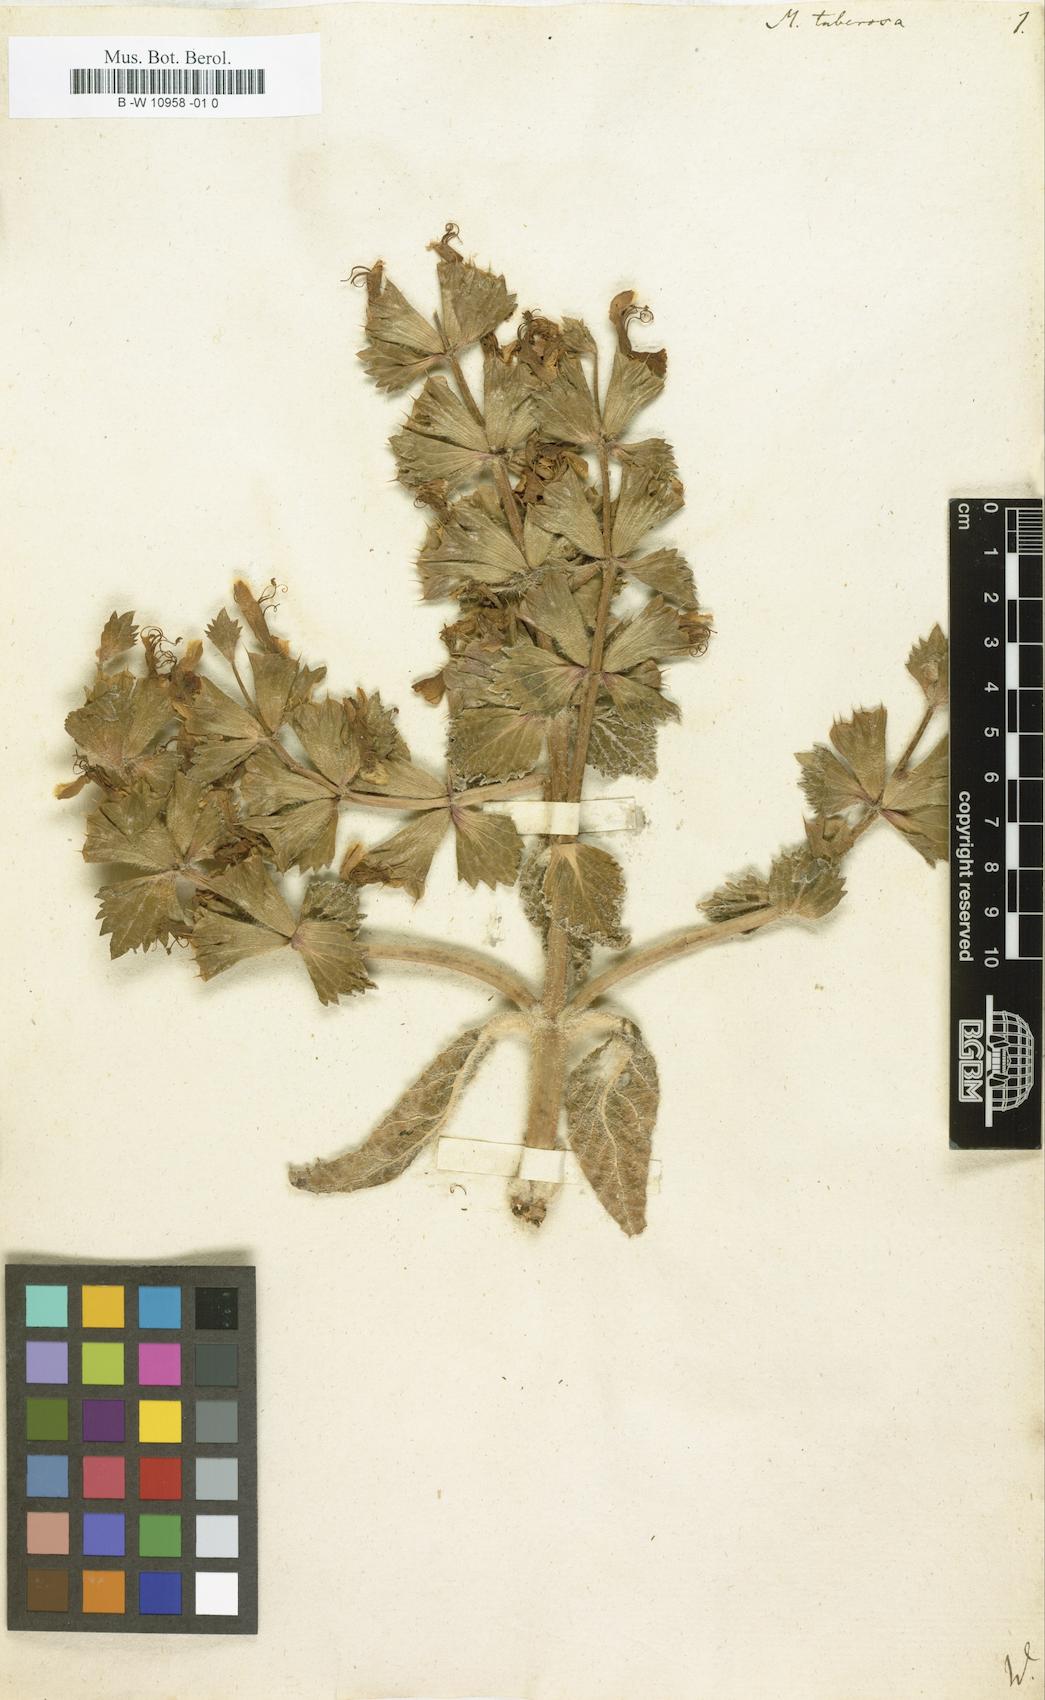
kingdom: Plantae
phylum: Tracheophyta
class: Magnoliopsida
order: Lamiales
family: Lamiaceae
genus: Moluccella
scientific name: Moluccella tuberosa
